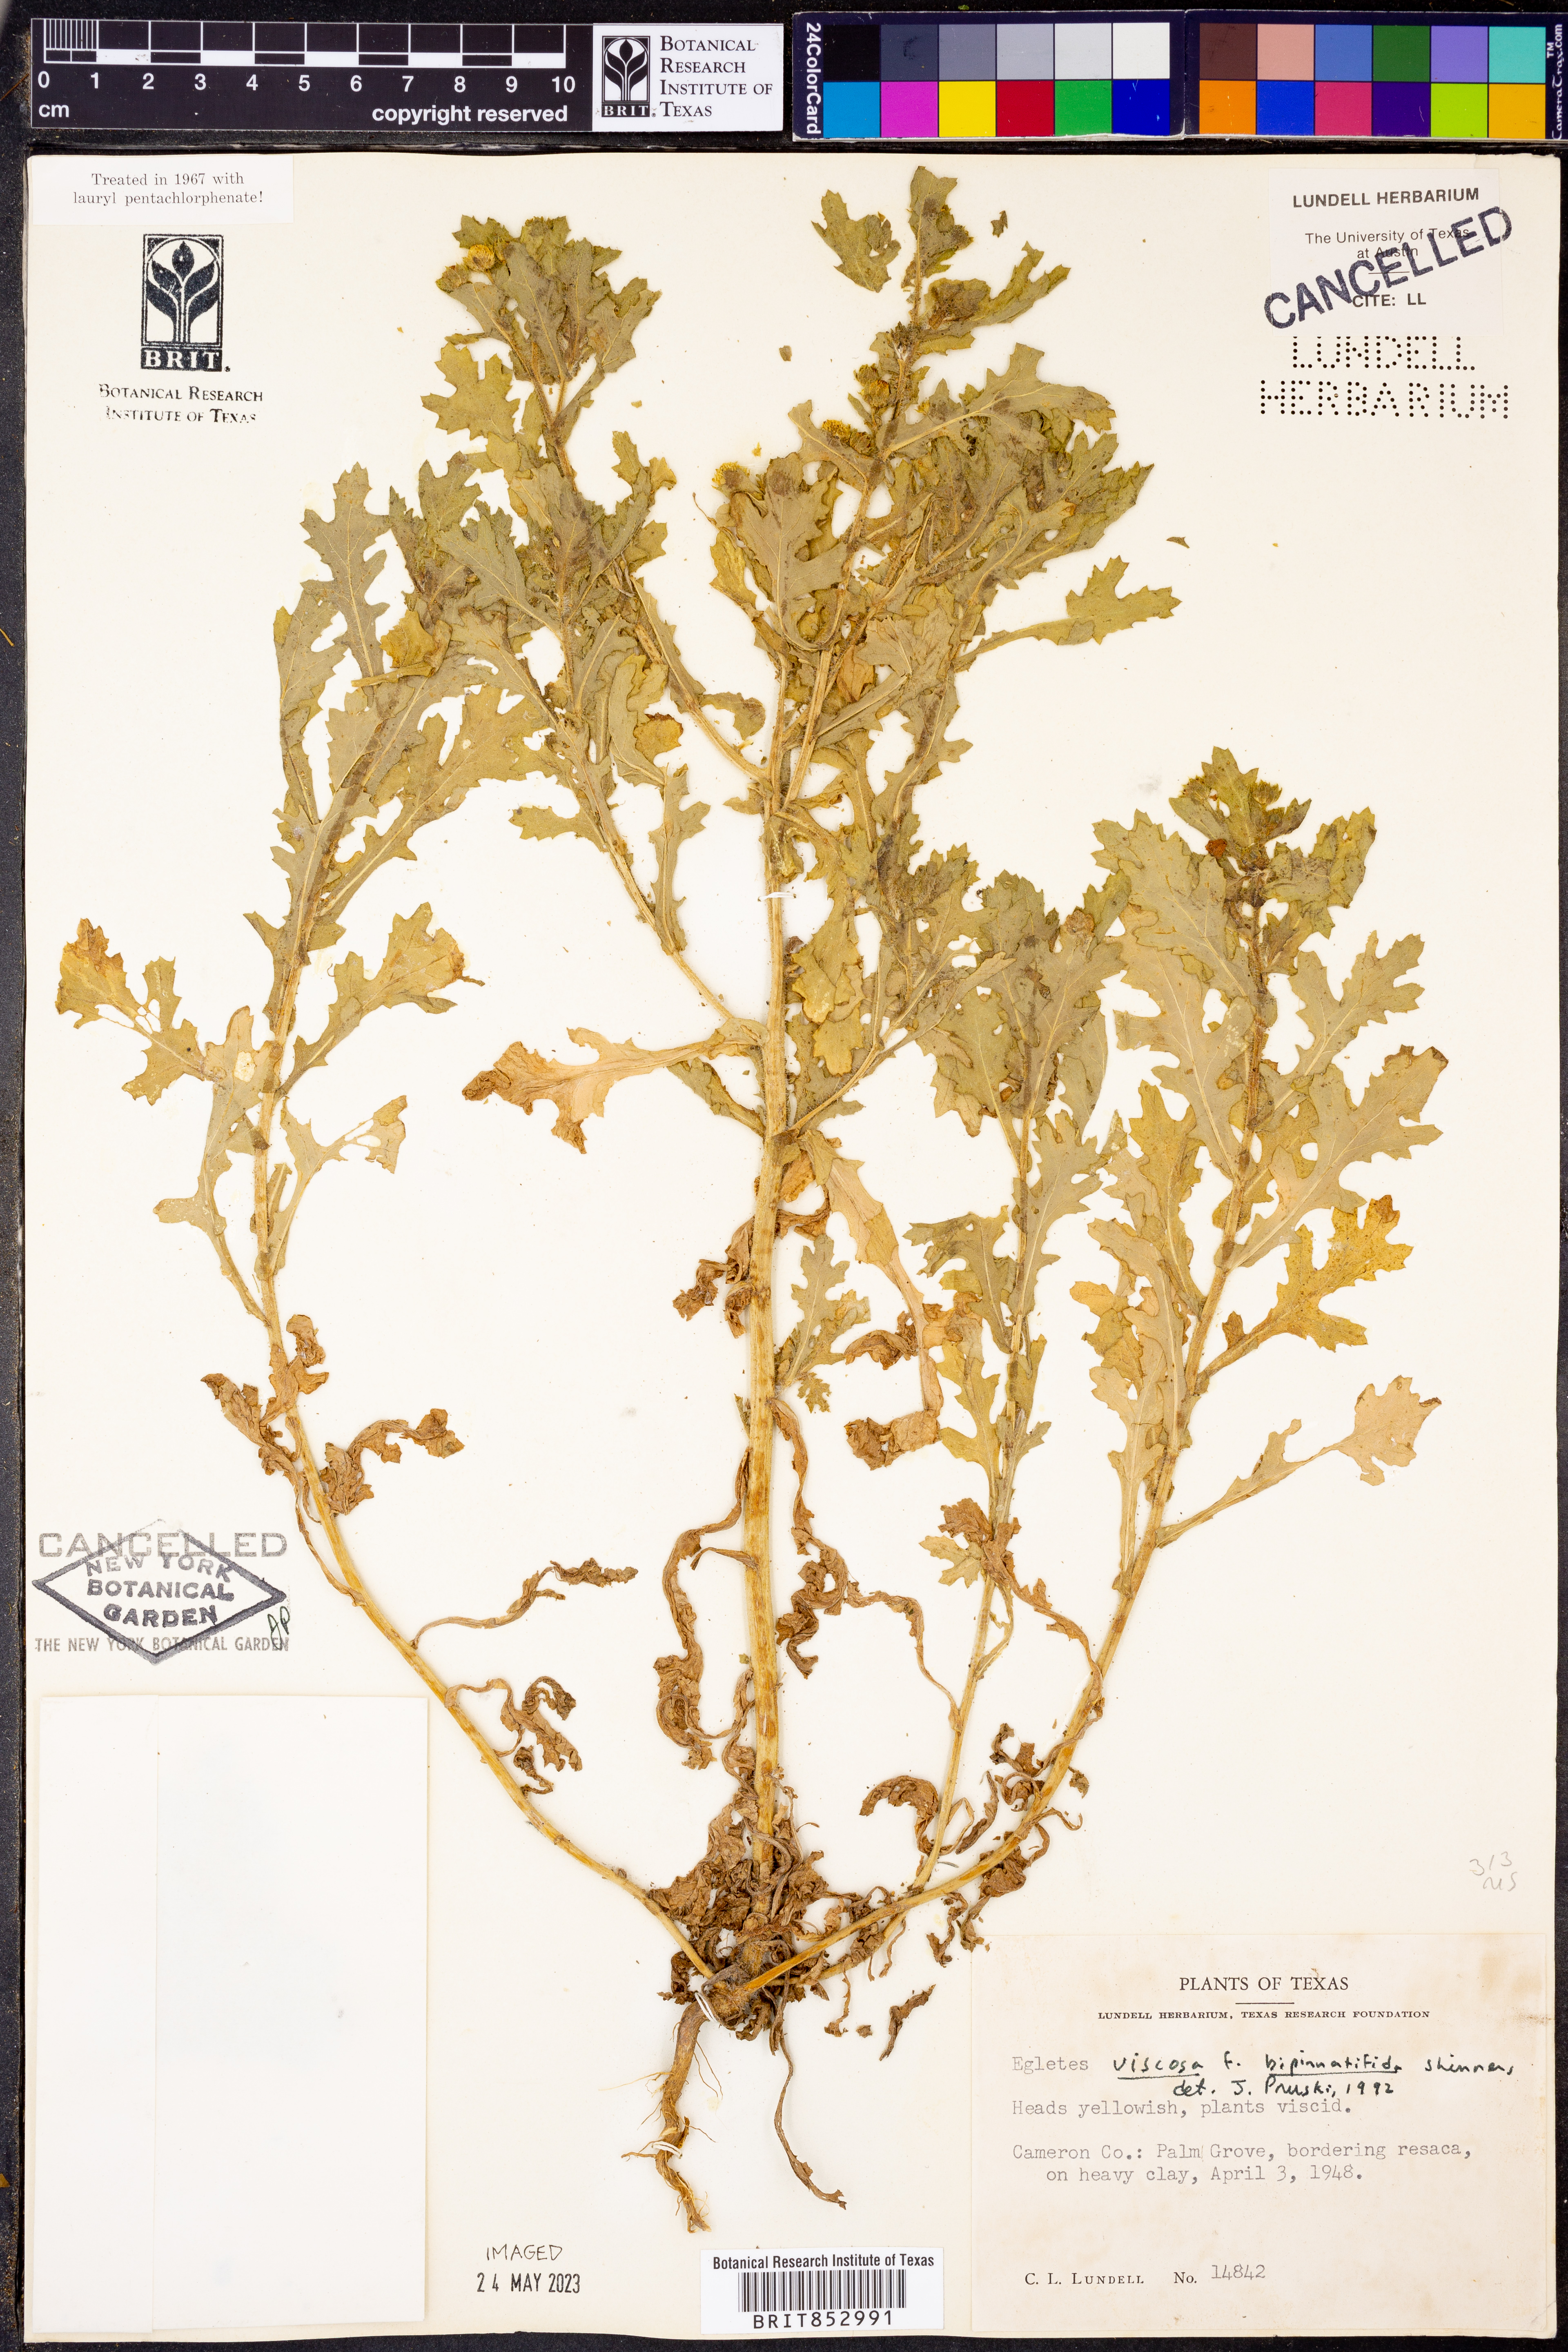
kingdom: Plantae
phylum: Tracheophyta
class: Magnoliopsida
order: Asterales
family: Asteraceae
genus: Egletes
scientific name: Egletes viscosa
